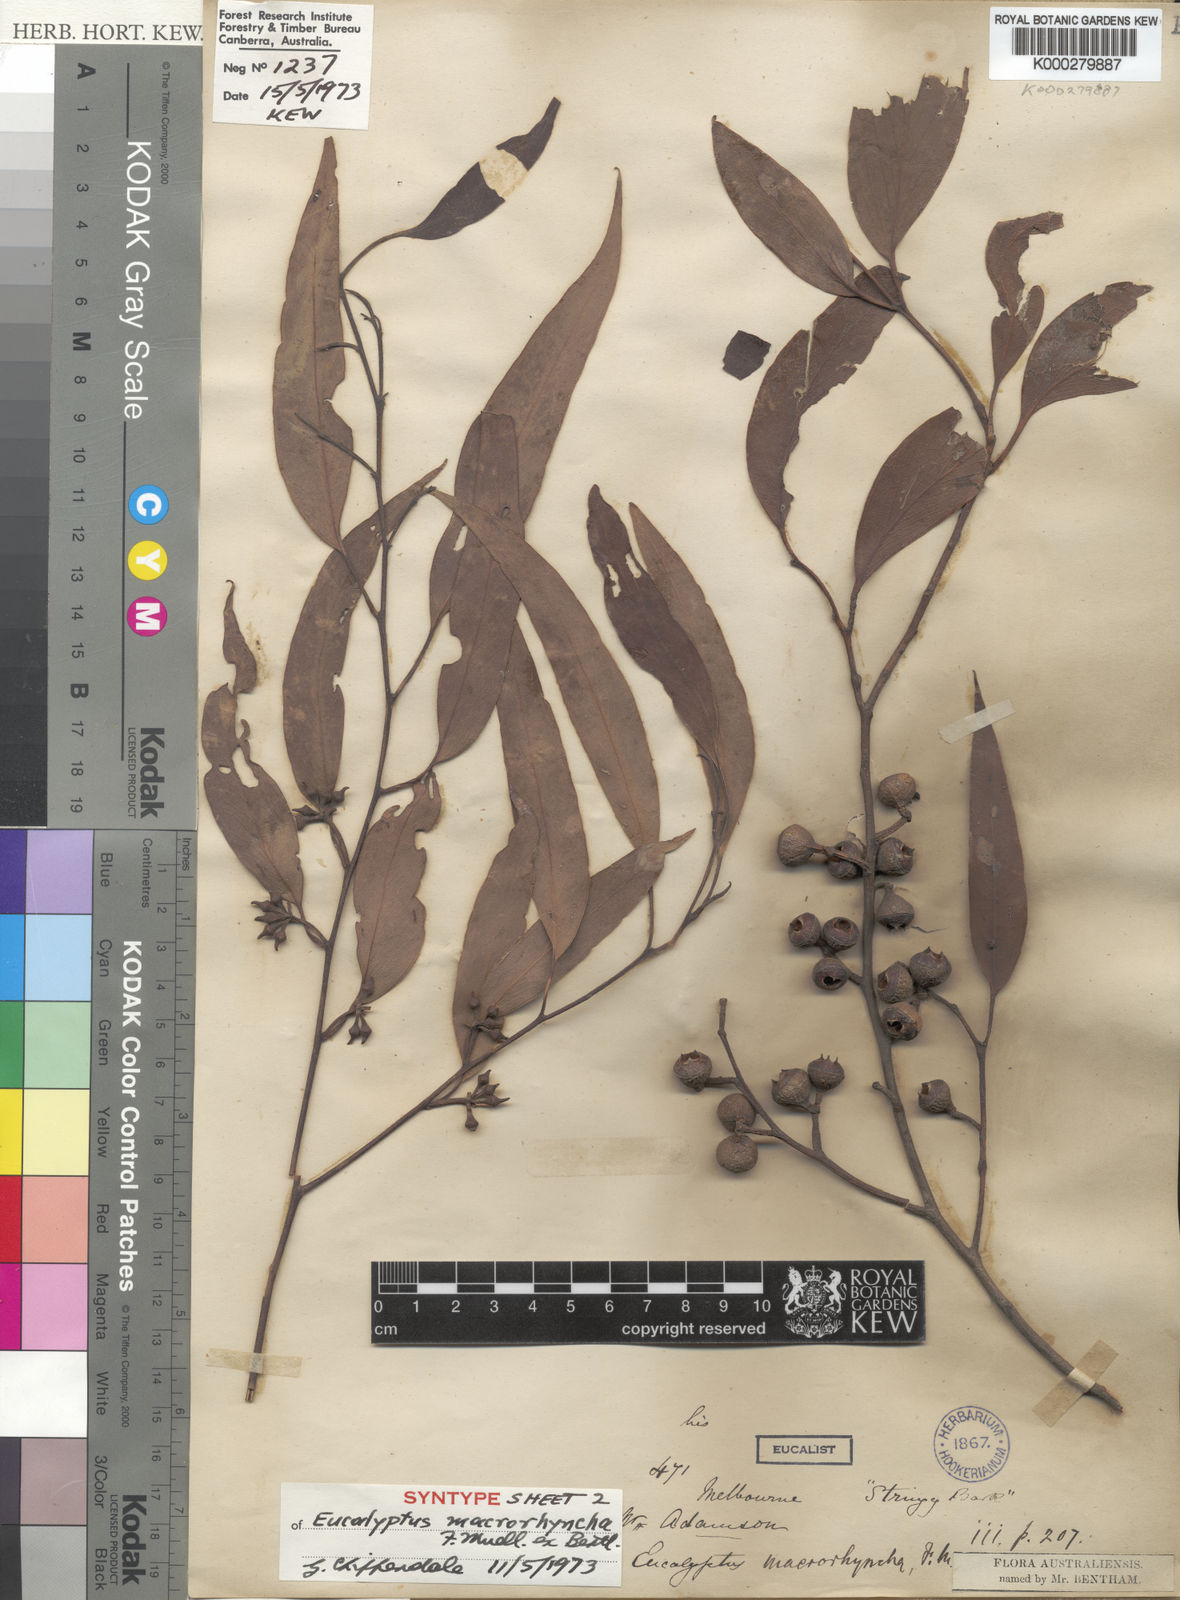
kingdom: Plantae
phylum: Tracheophyta
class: Magnoliopsida
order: Myrtales
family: Myrtaceae
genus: Eucalyptus
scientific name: Eucalyptus macrorhyncha
